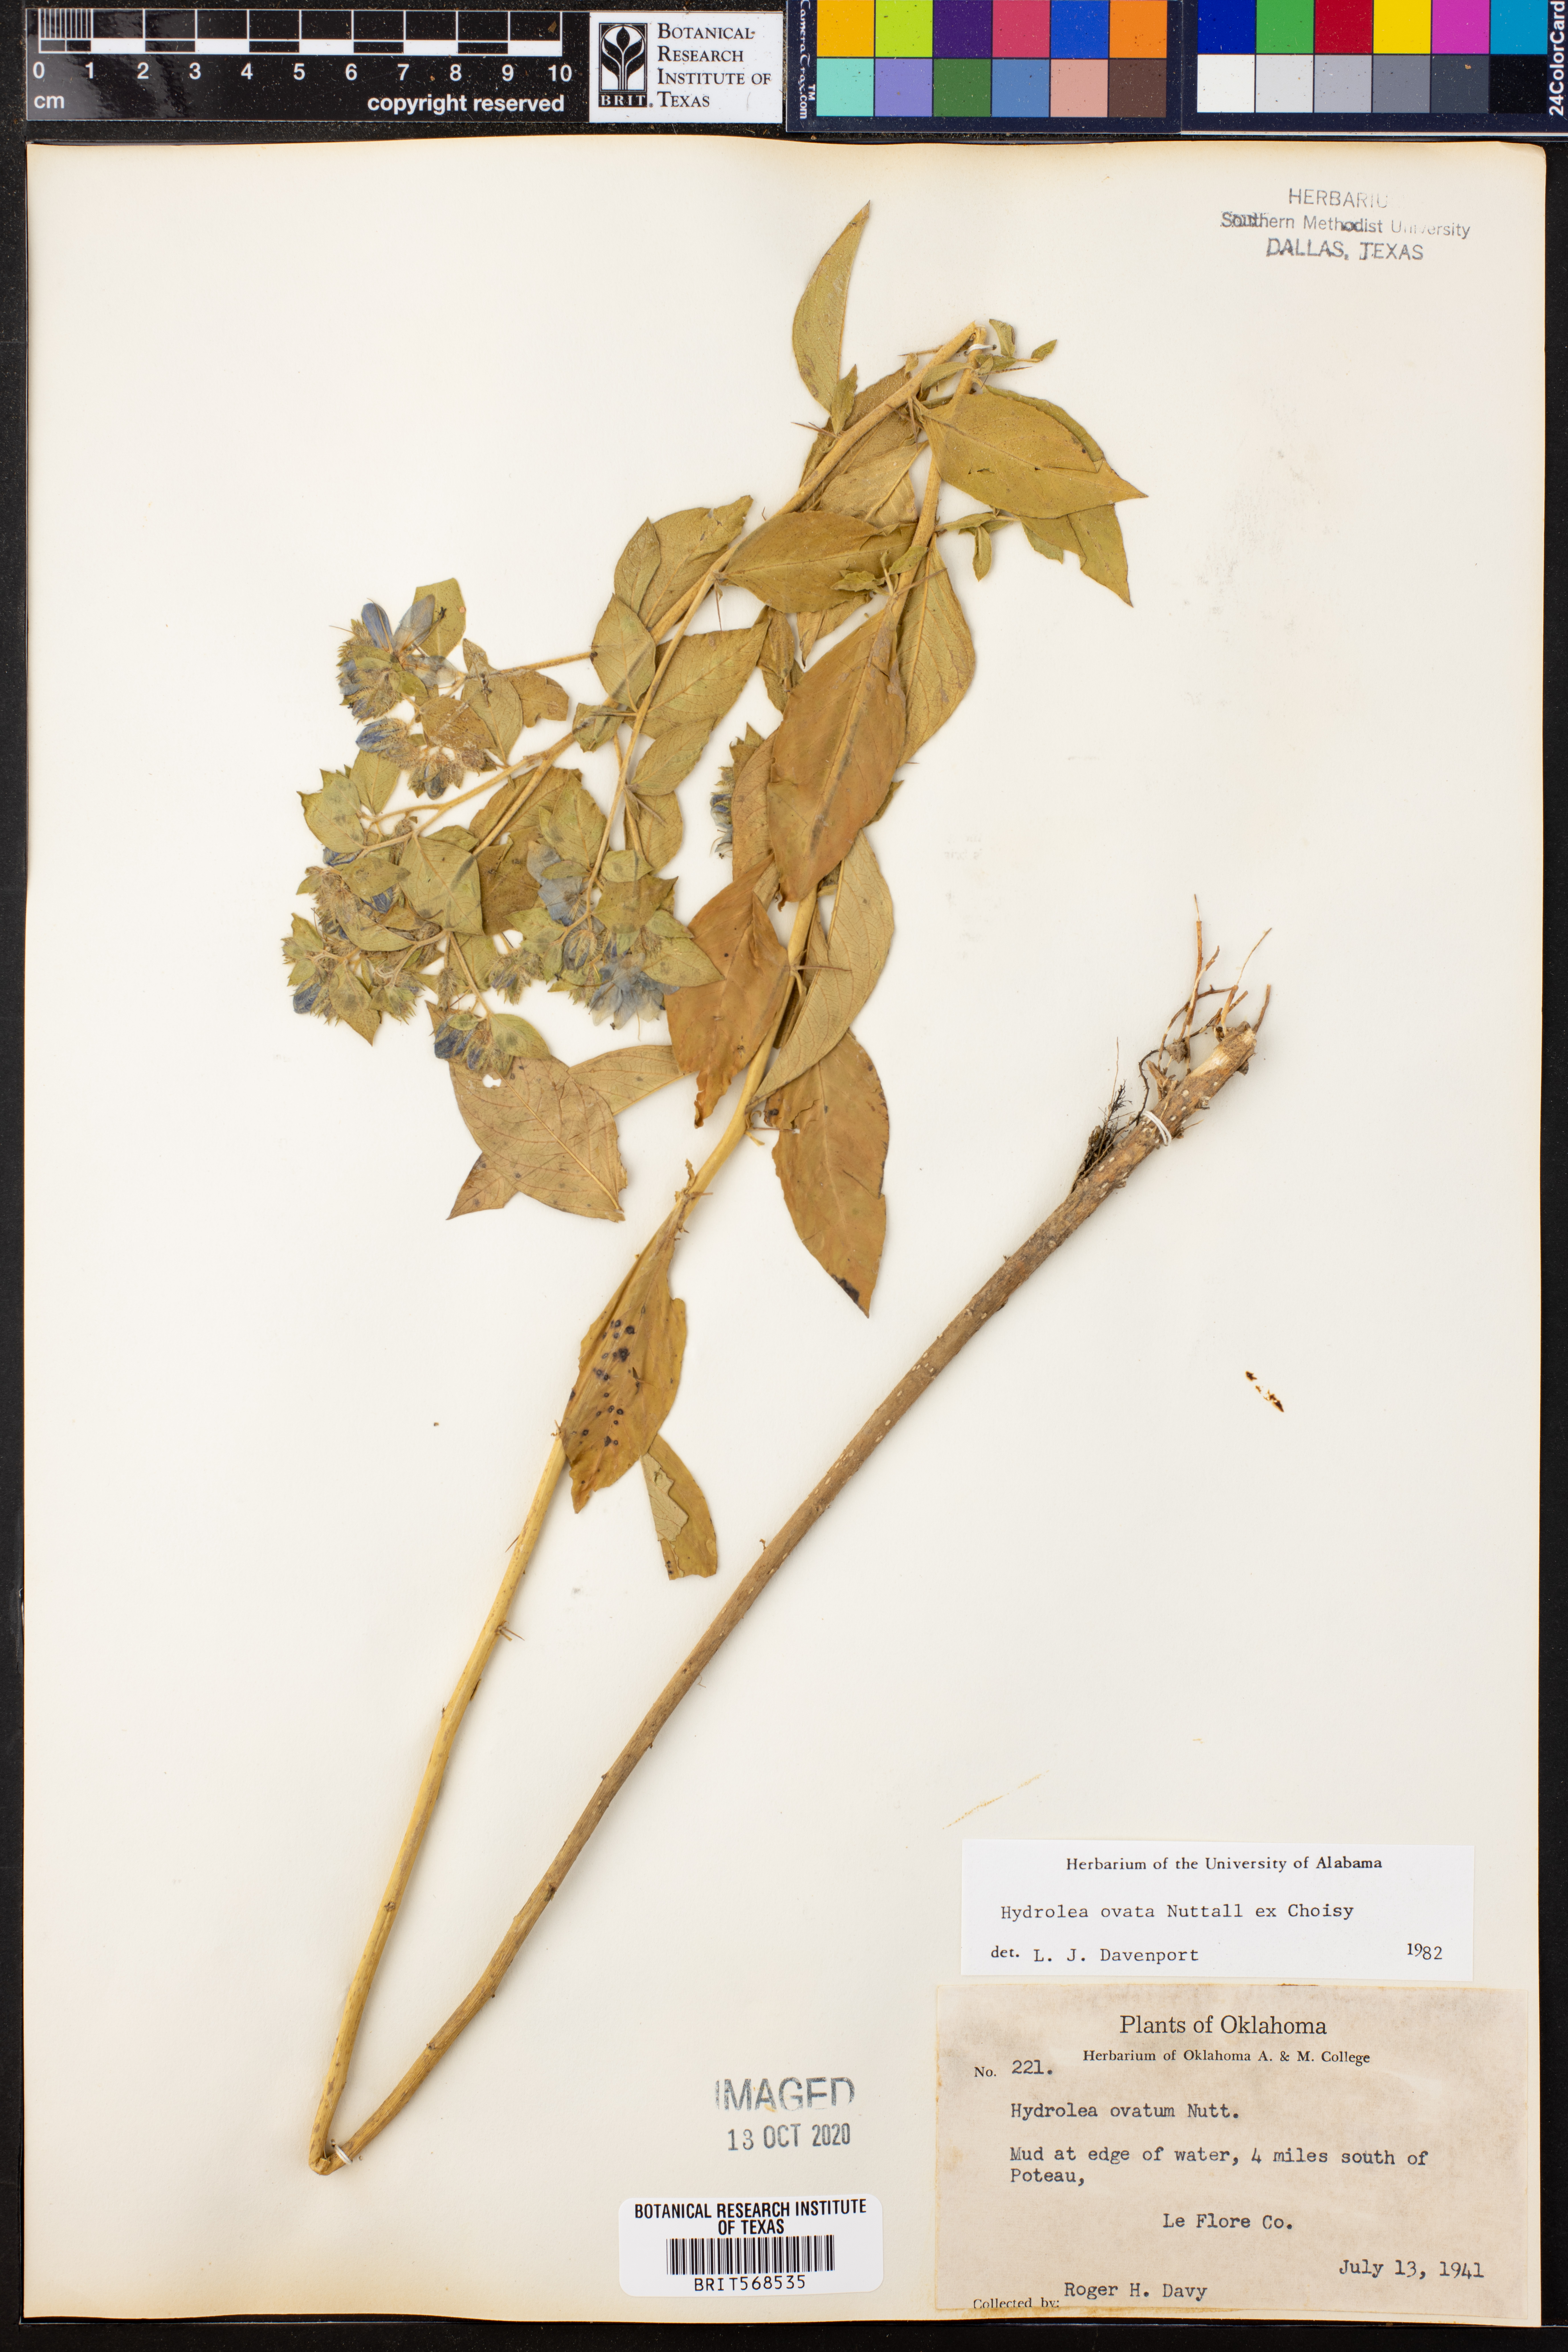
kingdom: Plantae
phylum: Tracheophyta
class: Magnoliopsida
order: Solanales
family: Hydroleaceae
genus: Hydrolea
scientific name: Hydrolea ovata
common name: Ovate false fiddleleaf
